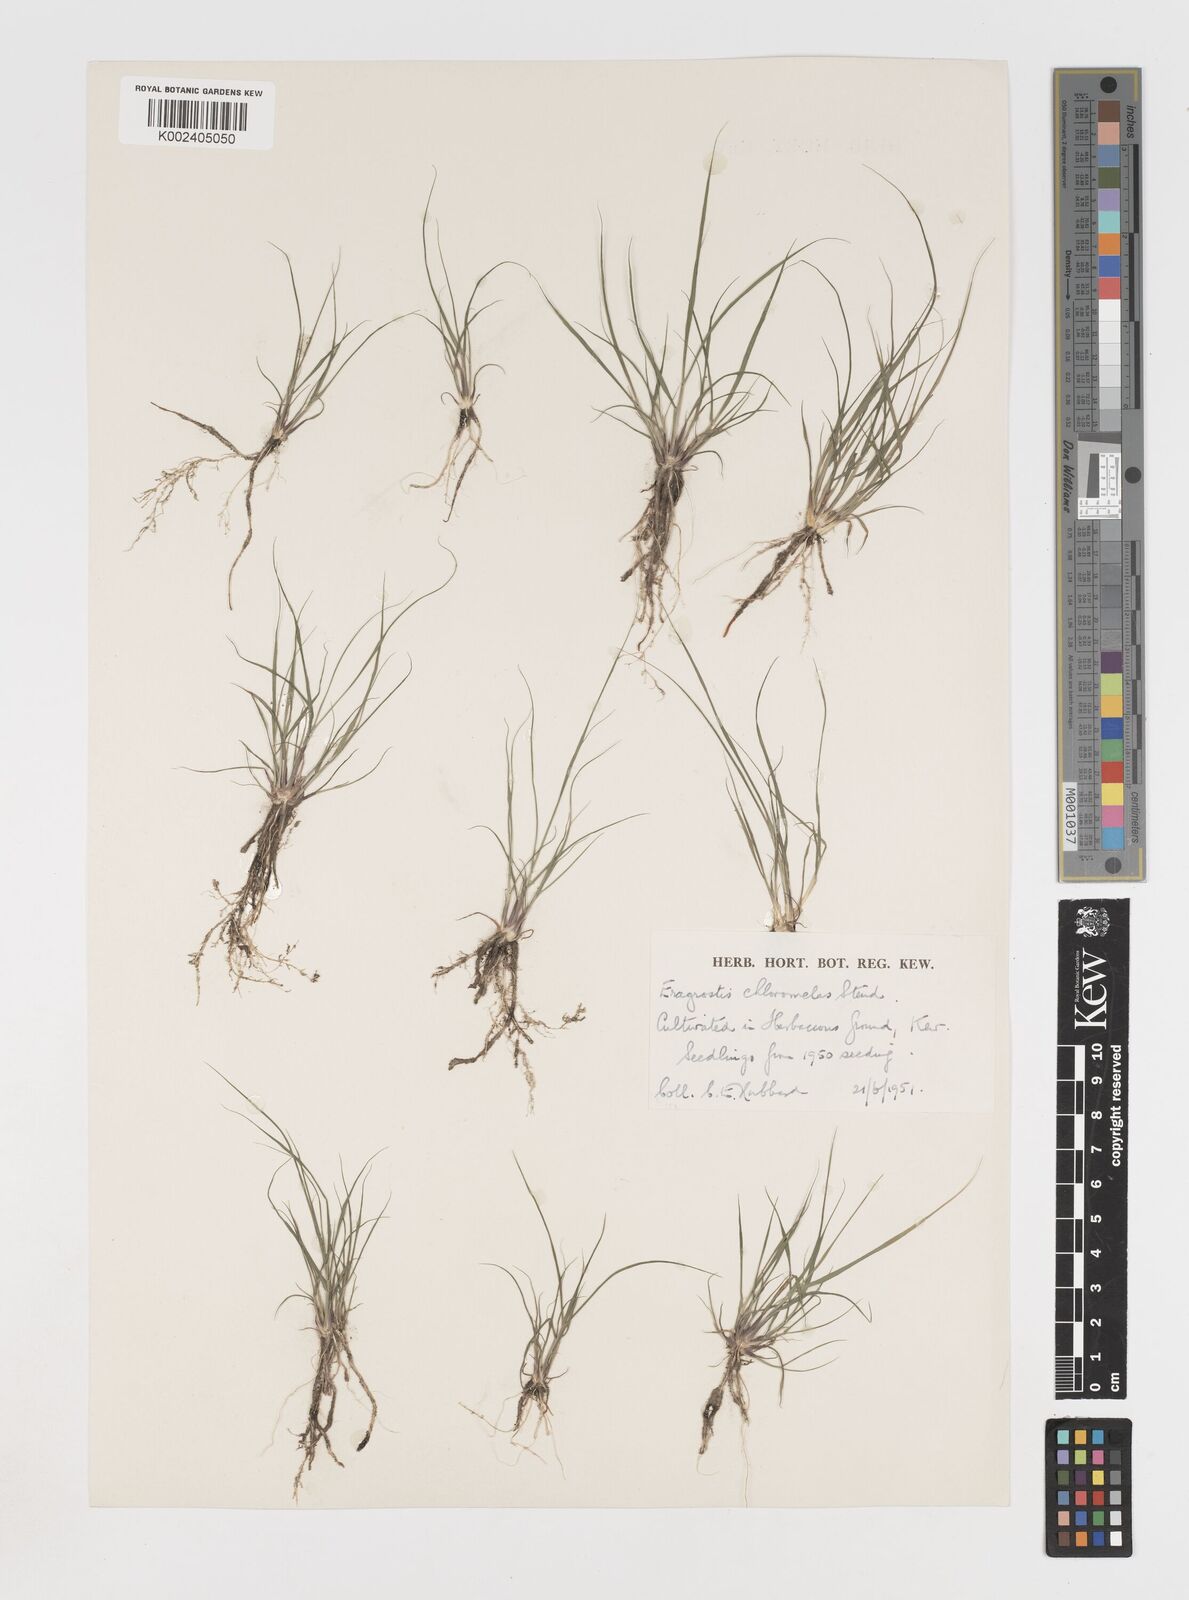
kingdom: Plantae
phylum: Tracheophyta
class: Liliopsida
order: Poales
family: Poaceae
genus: Eragrostis
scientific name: Eragrostis curvula
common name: African love-grass
